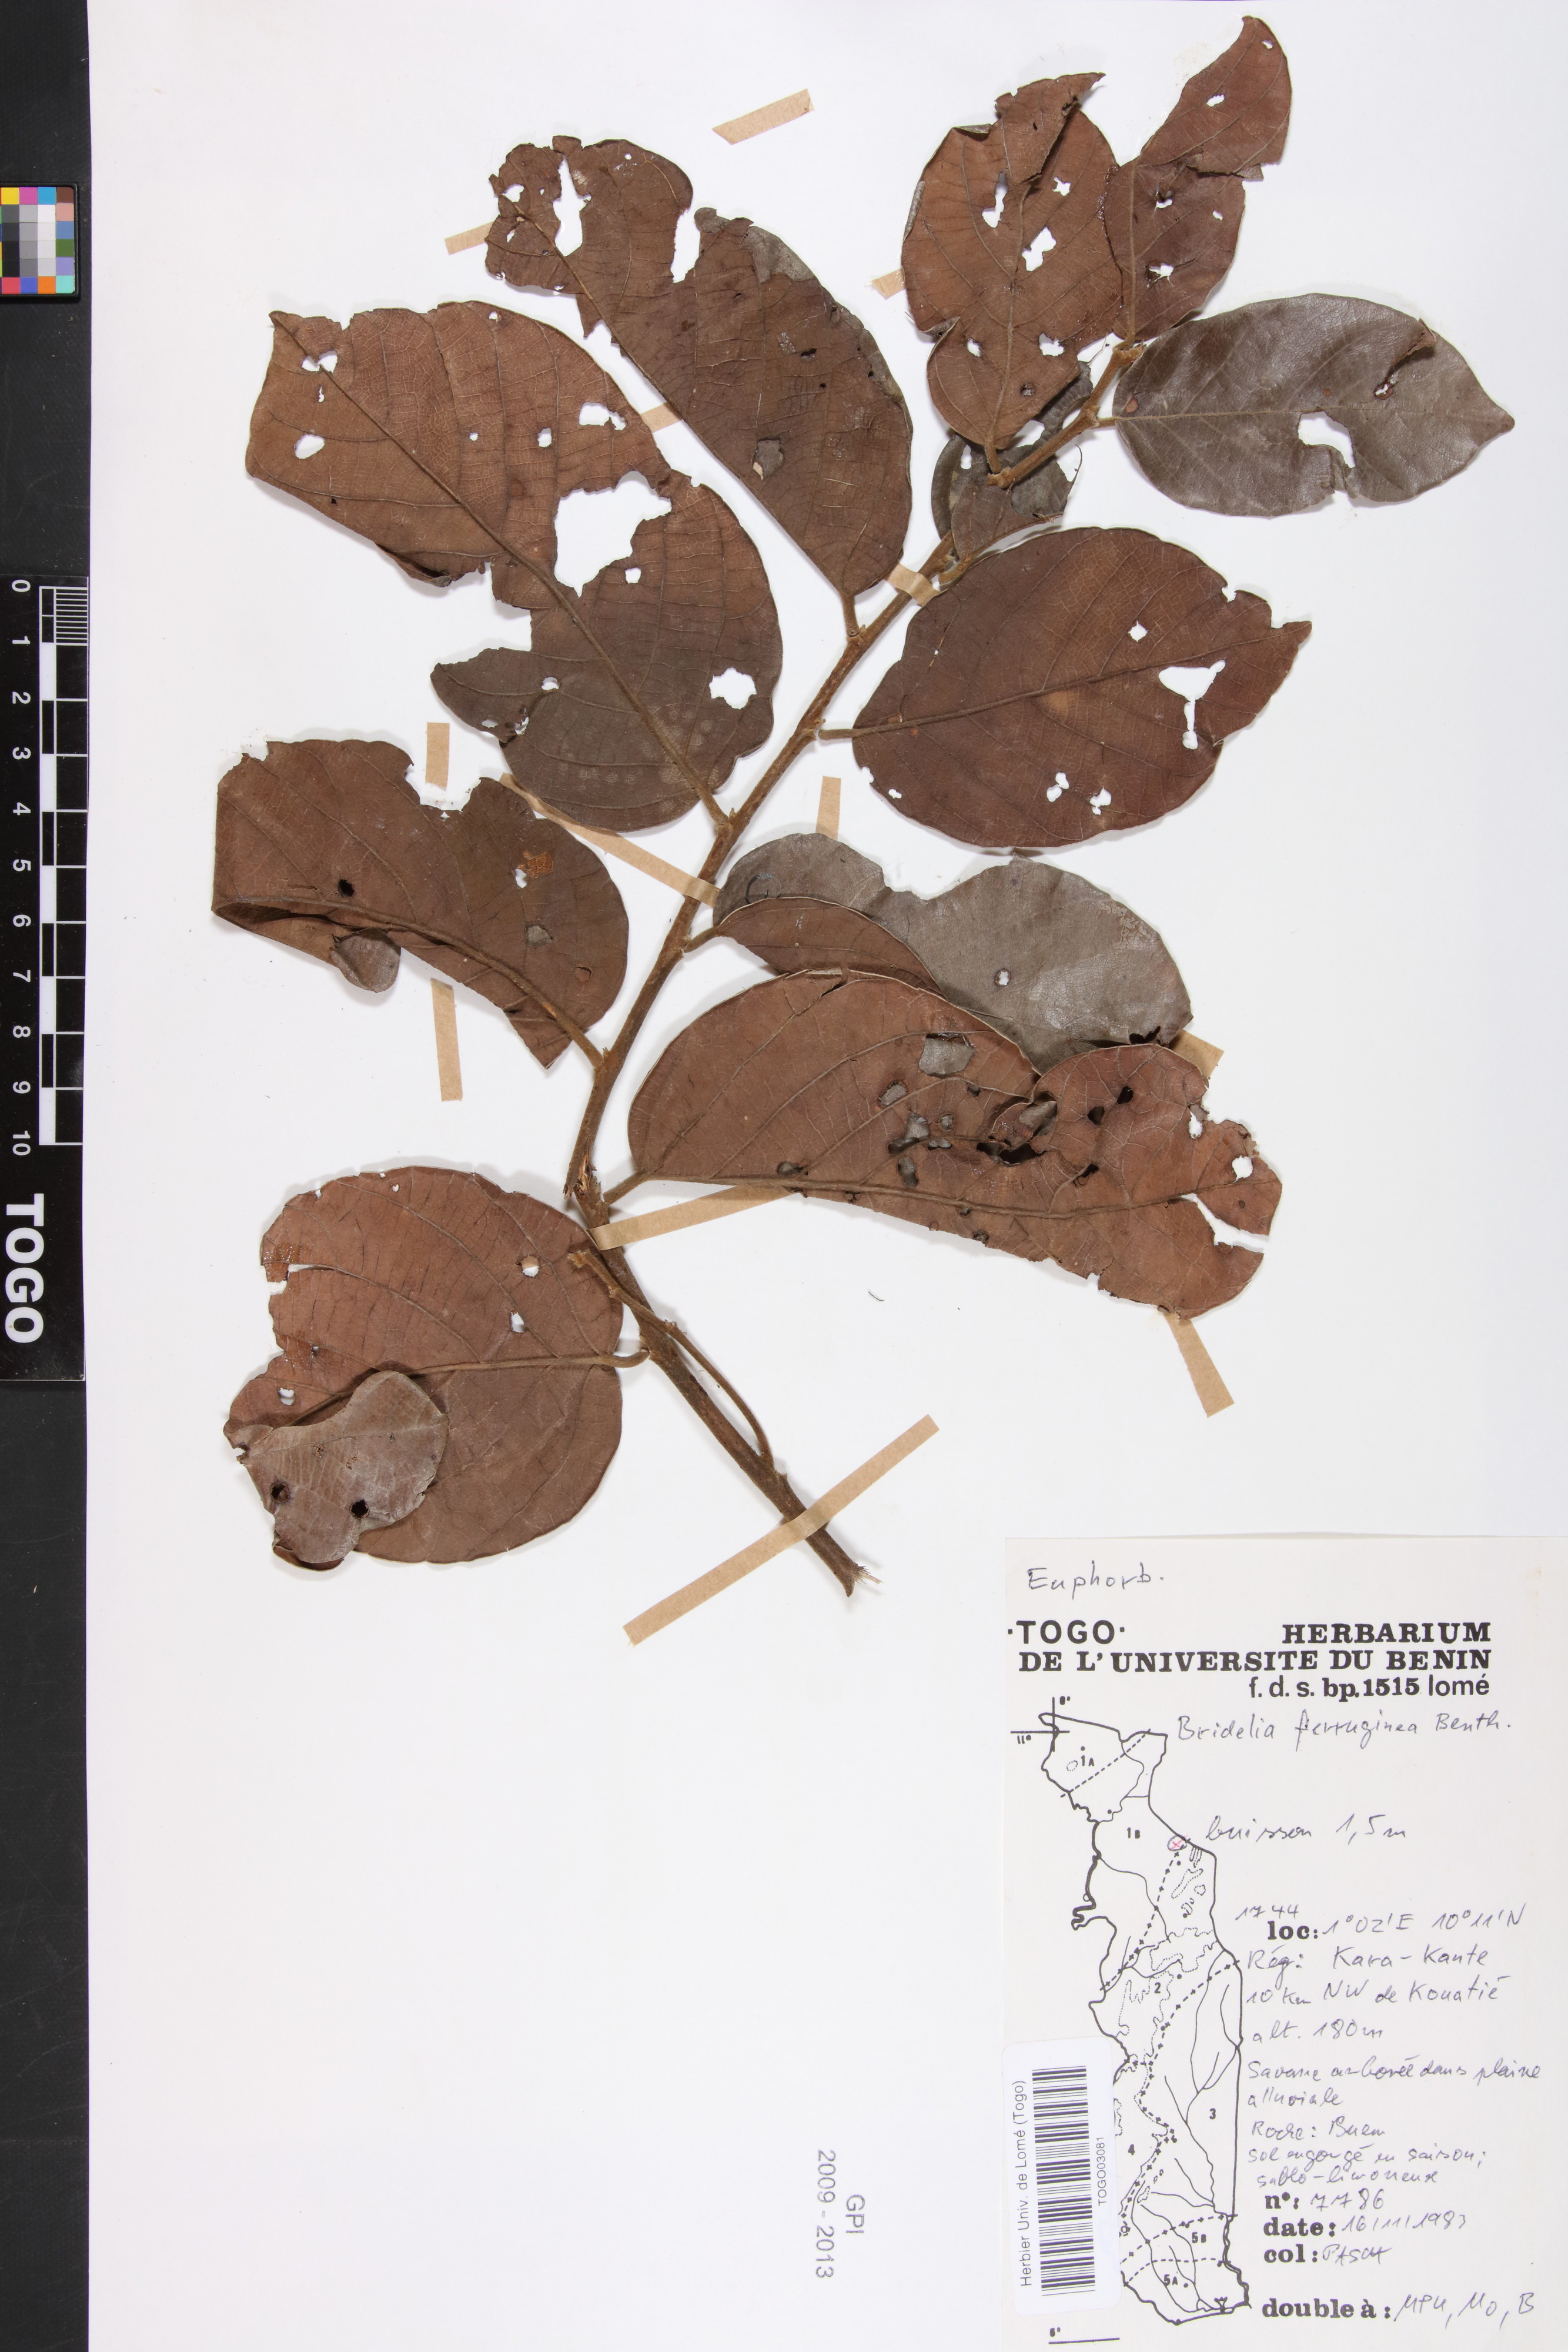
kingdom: Plantae
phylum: Tracheophyta
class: Magnoliopsida
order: Malpighiales
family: Phyllanthaceae
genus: Bridelia
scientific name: Bridelia ferruginea
